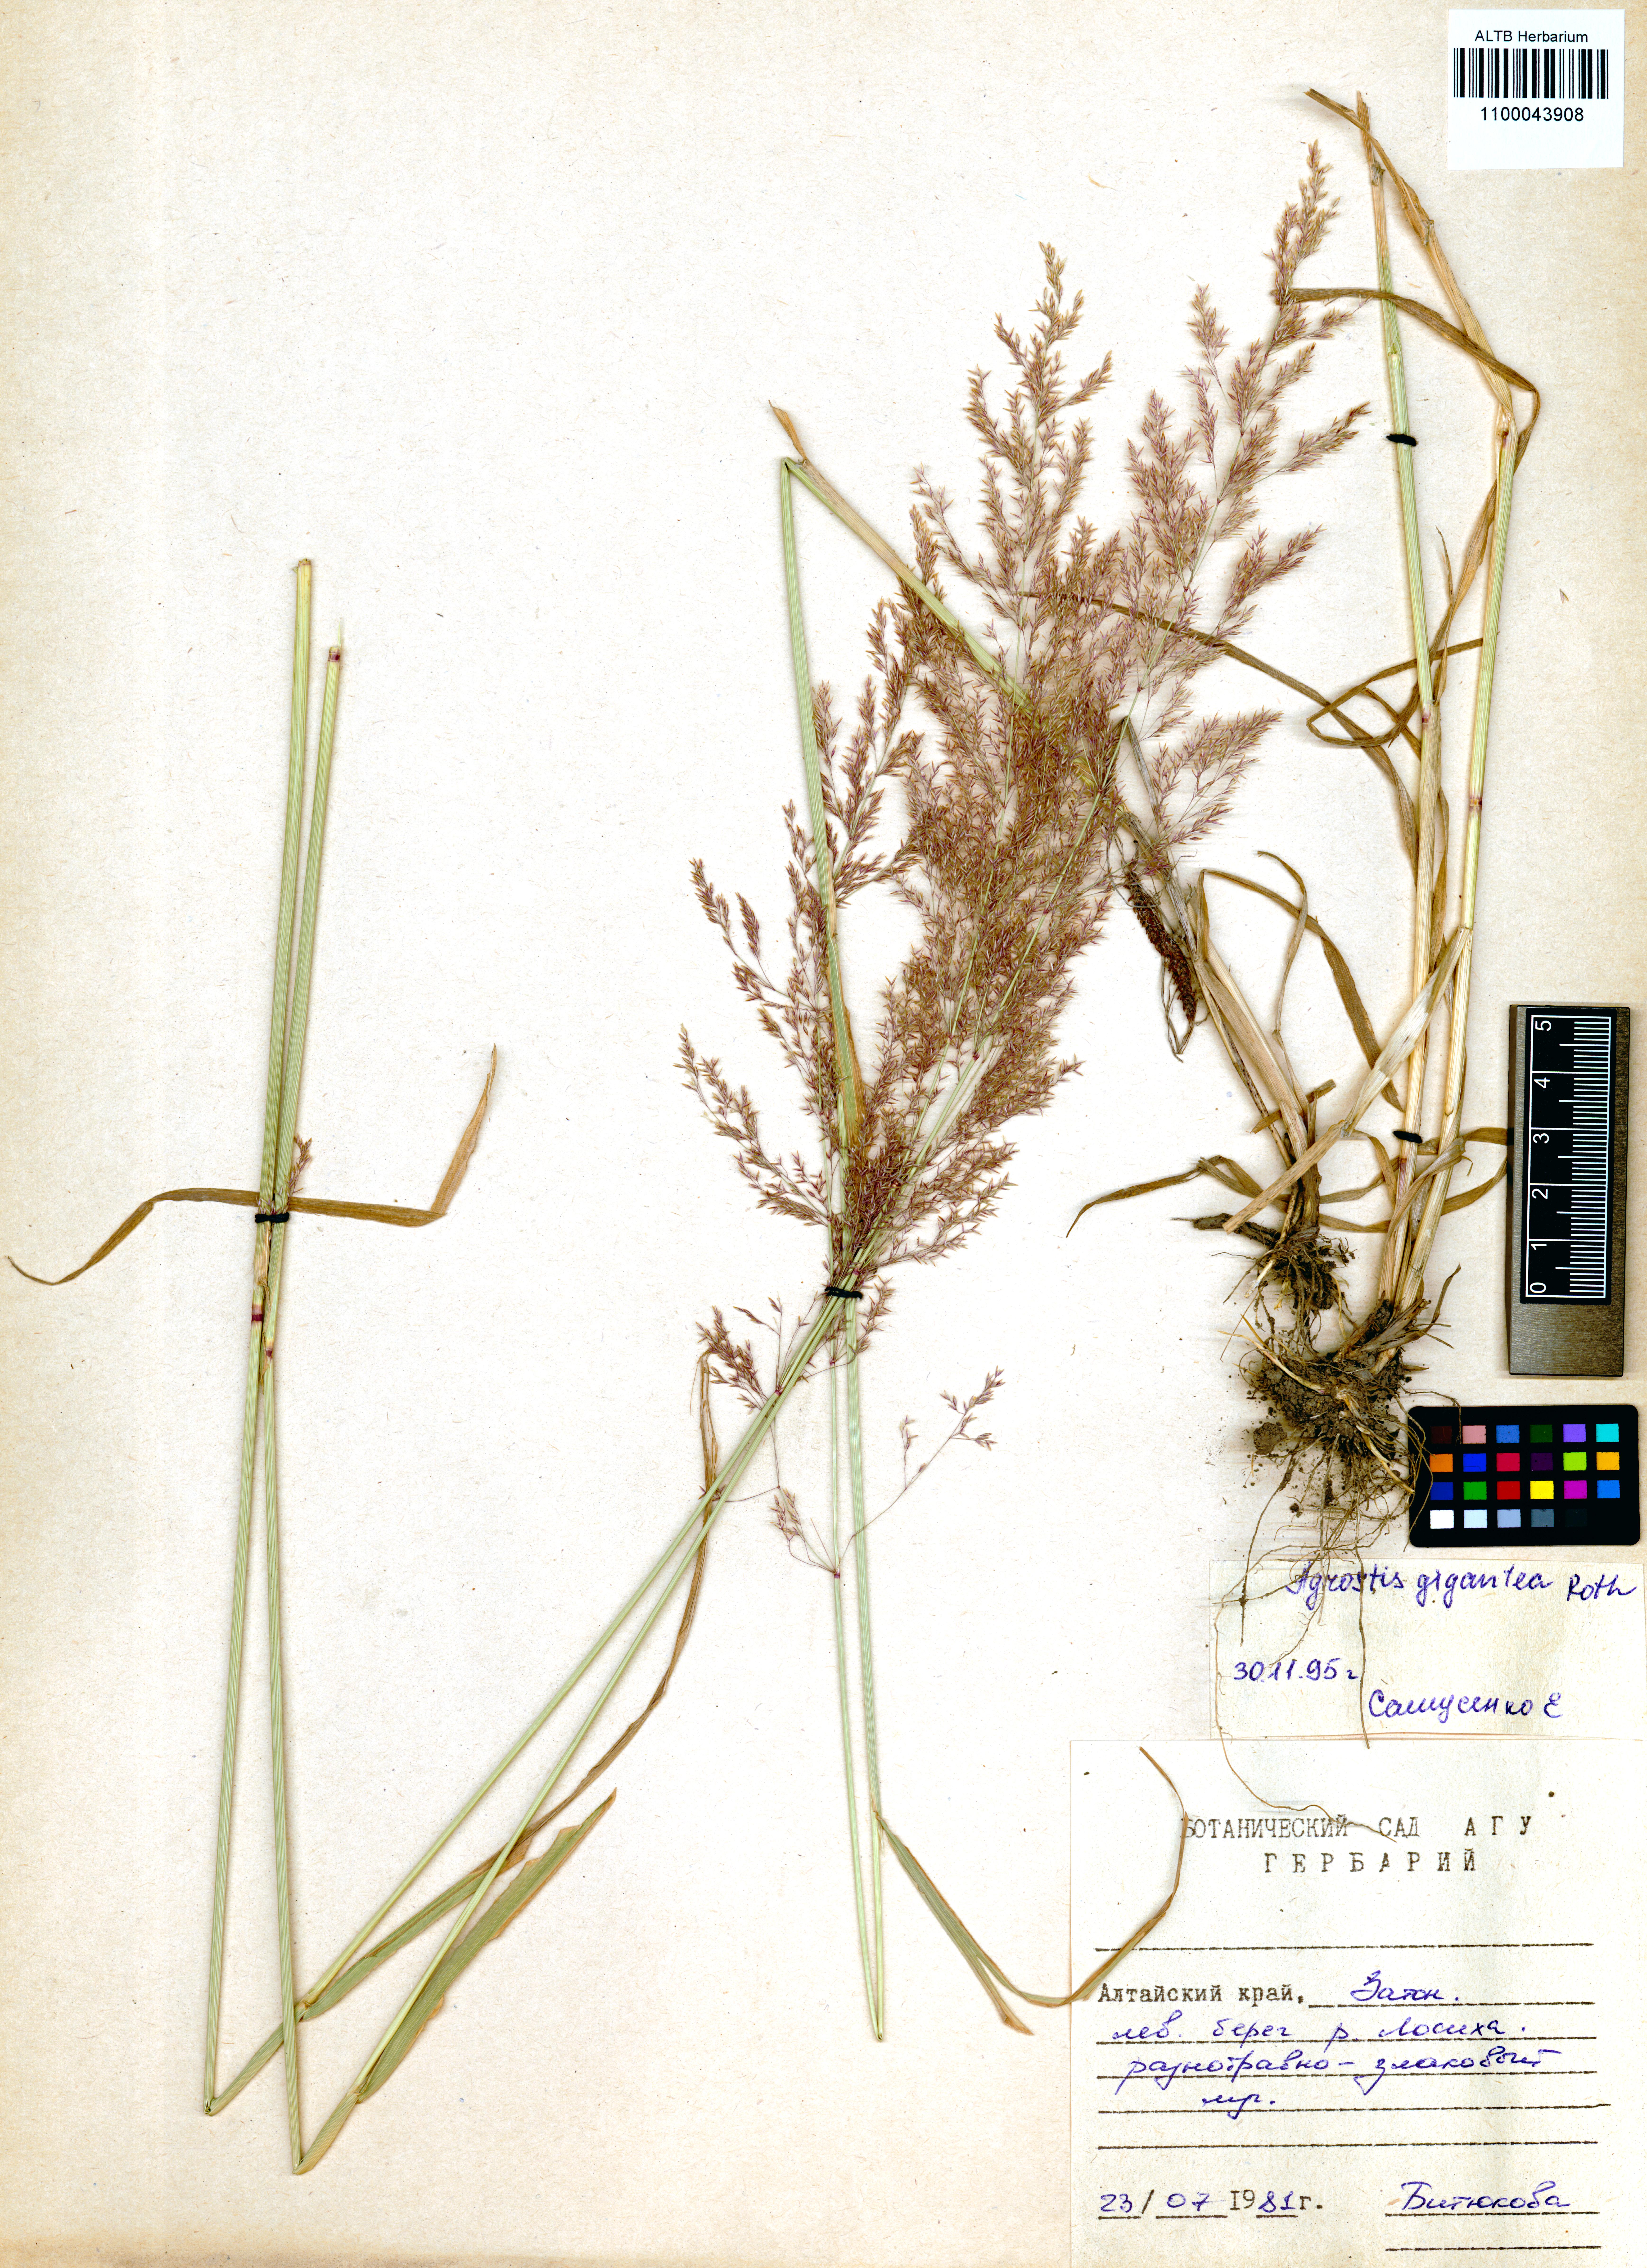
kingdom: Plantae
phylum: Tracheophyta
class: Liliopsida
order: Poales
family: Poaceae
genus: Agrostis
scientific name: Agrostis gigantea
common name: Black bent
